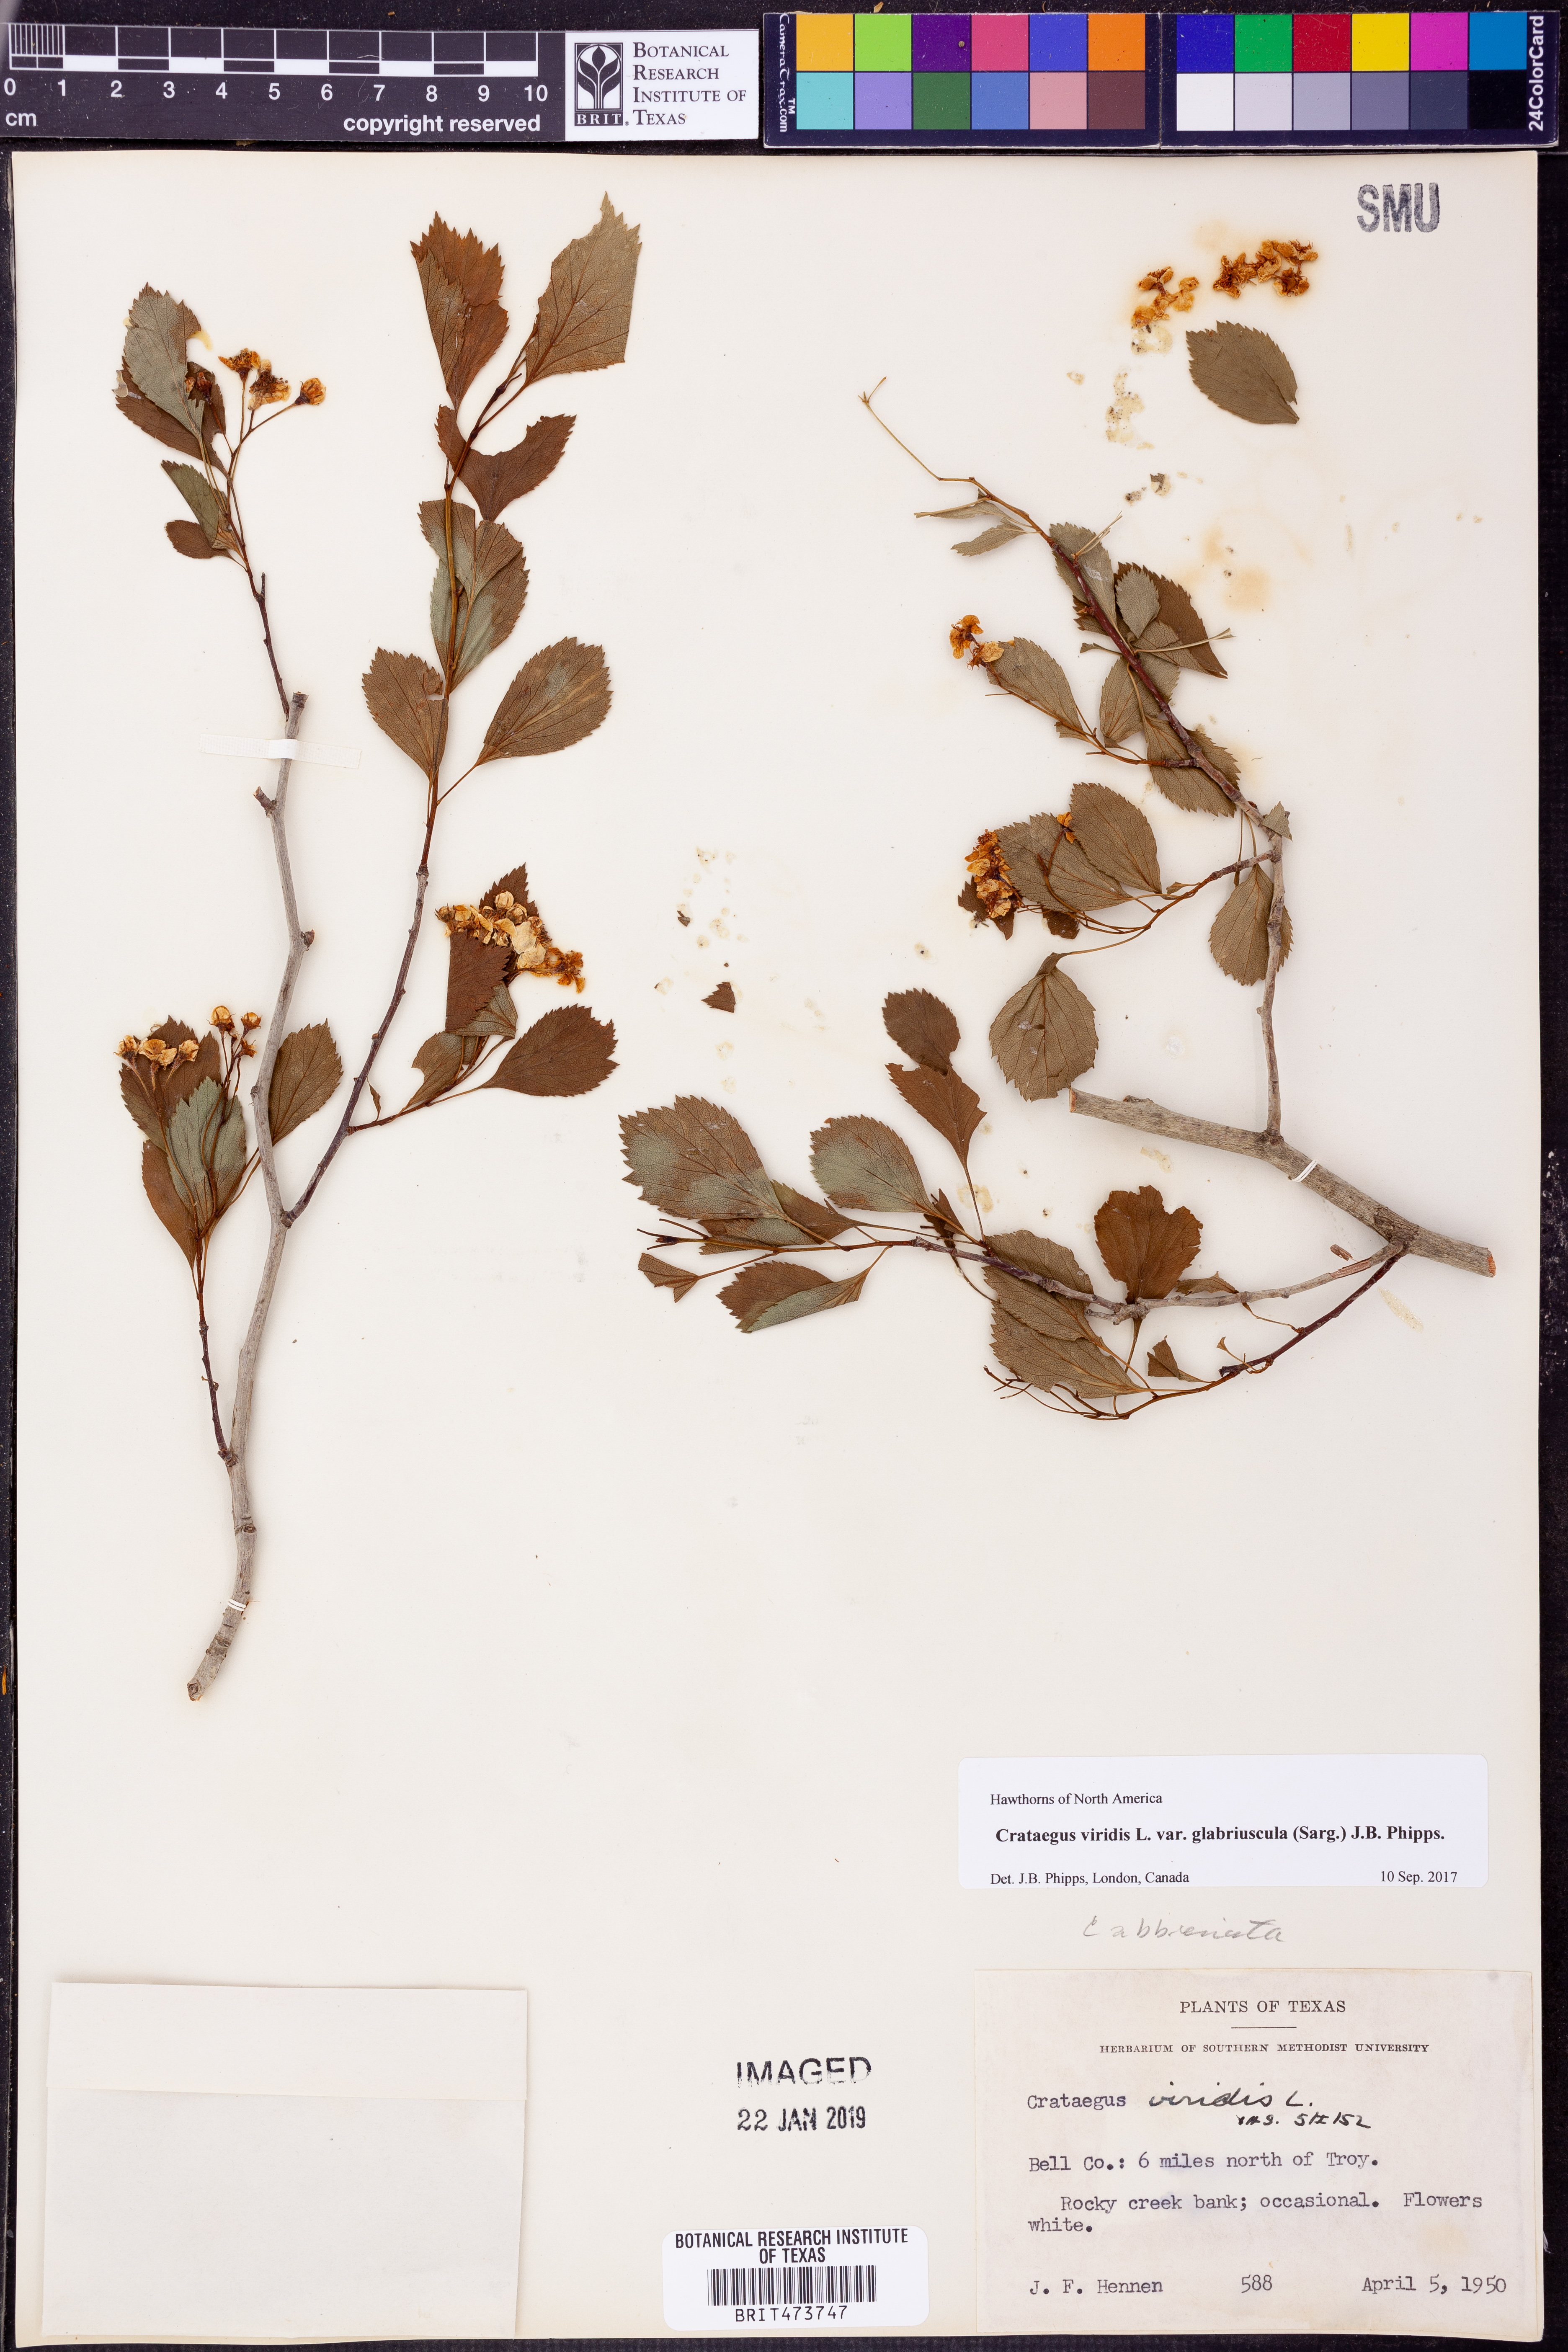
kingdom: Plantae
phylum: Tracheophyta
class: Magnoliopsida
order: Rosales
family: Rosaceae
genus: Crataegus
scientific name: Crataegus viridis
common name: Southernthorn
